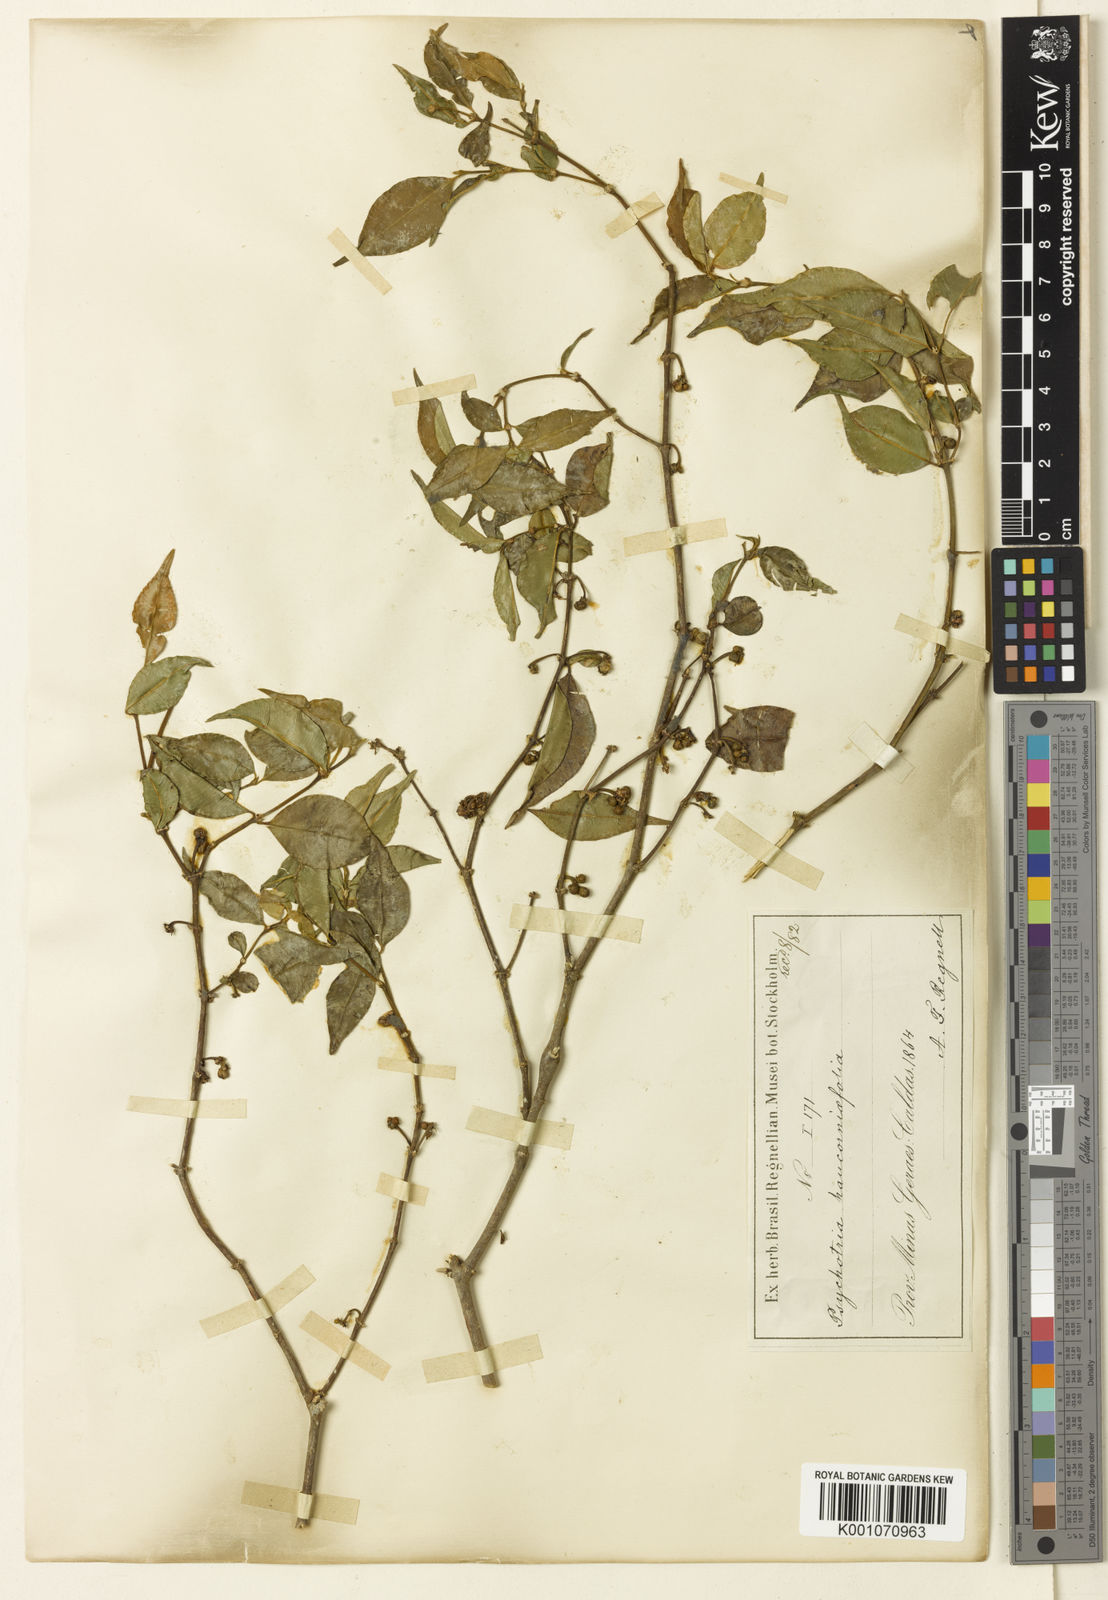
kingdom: Plantae
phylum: Tracheophyta
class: Magnoliopsida
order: Gentianales
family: Rubiaceae
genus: Palicourea
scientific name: Palicourea sessilis
